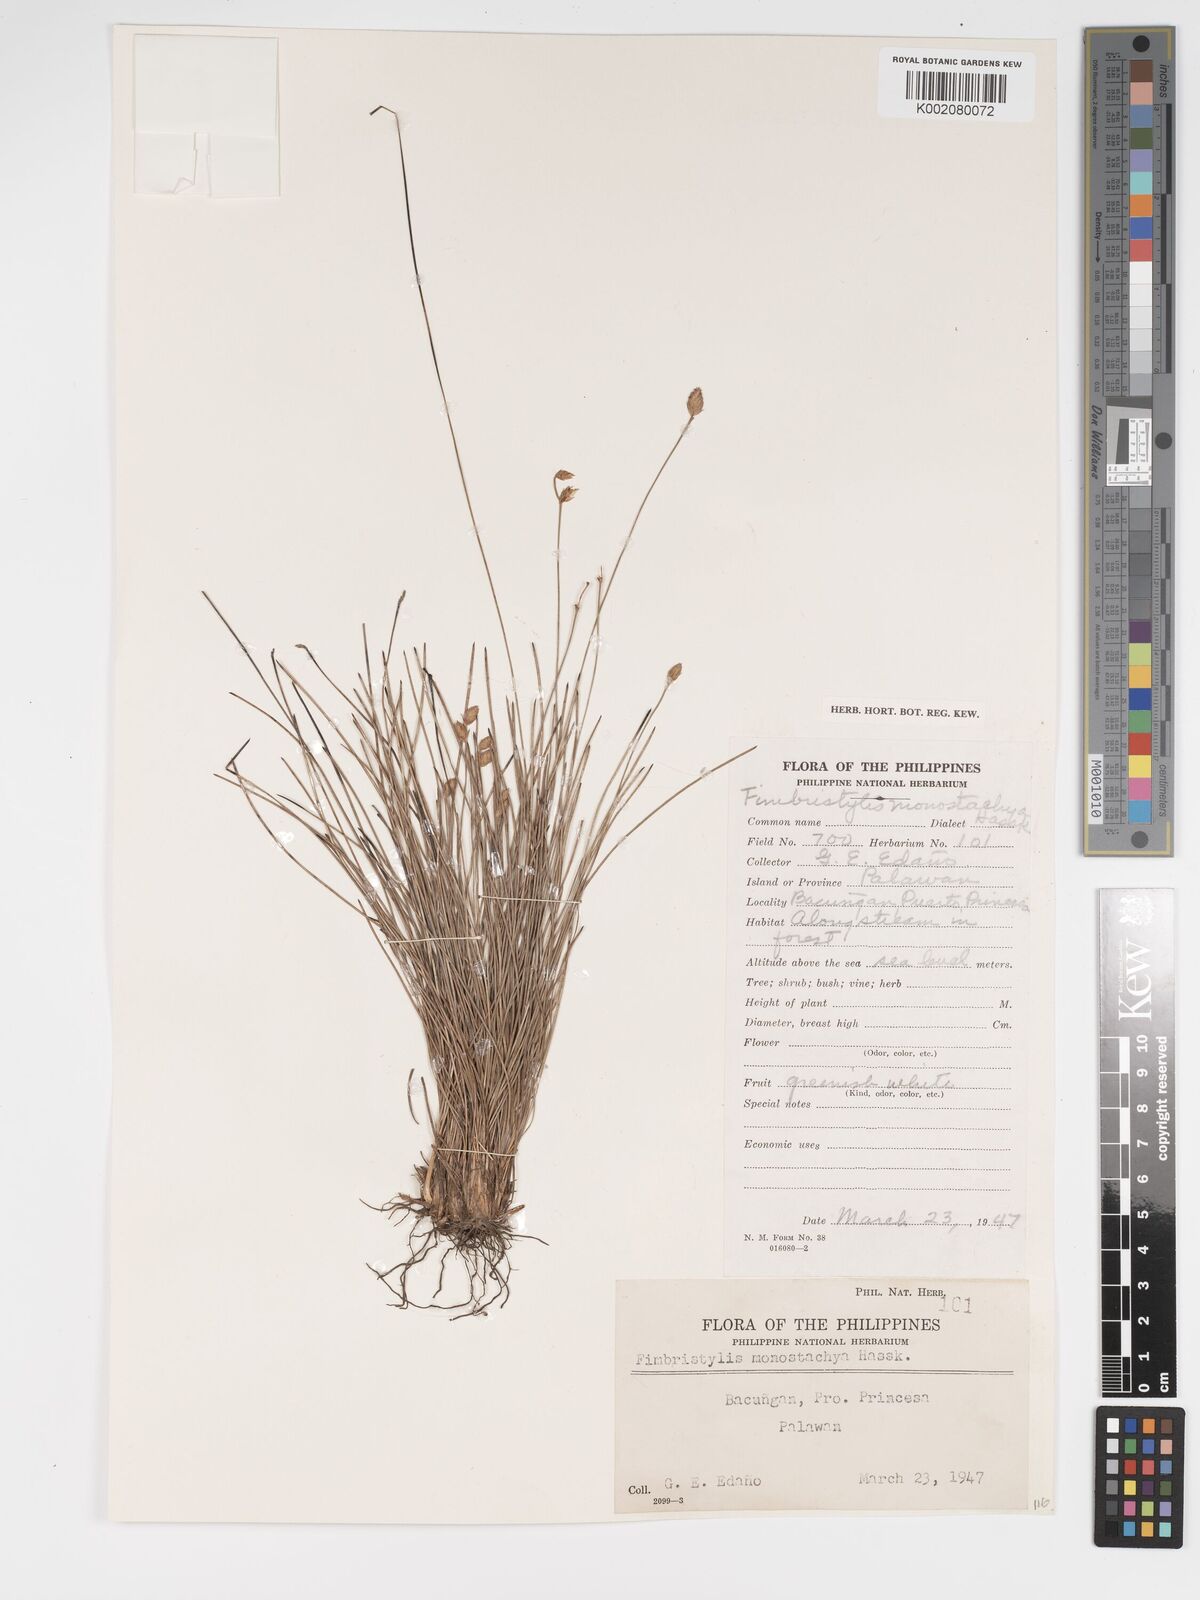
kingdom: Plantae
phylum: Tracheophyta
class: Liliopsida
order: Poales
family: Cyperaceae
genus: Abildgaardia
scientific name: Abildgaardia ovata
